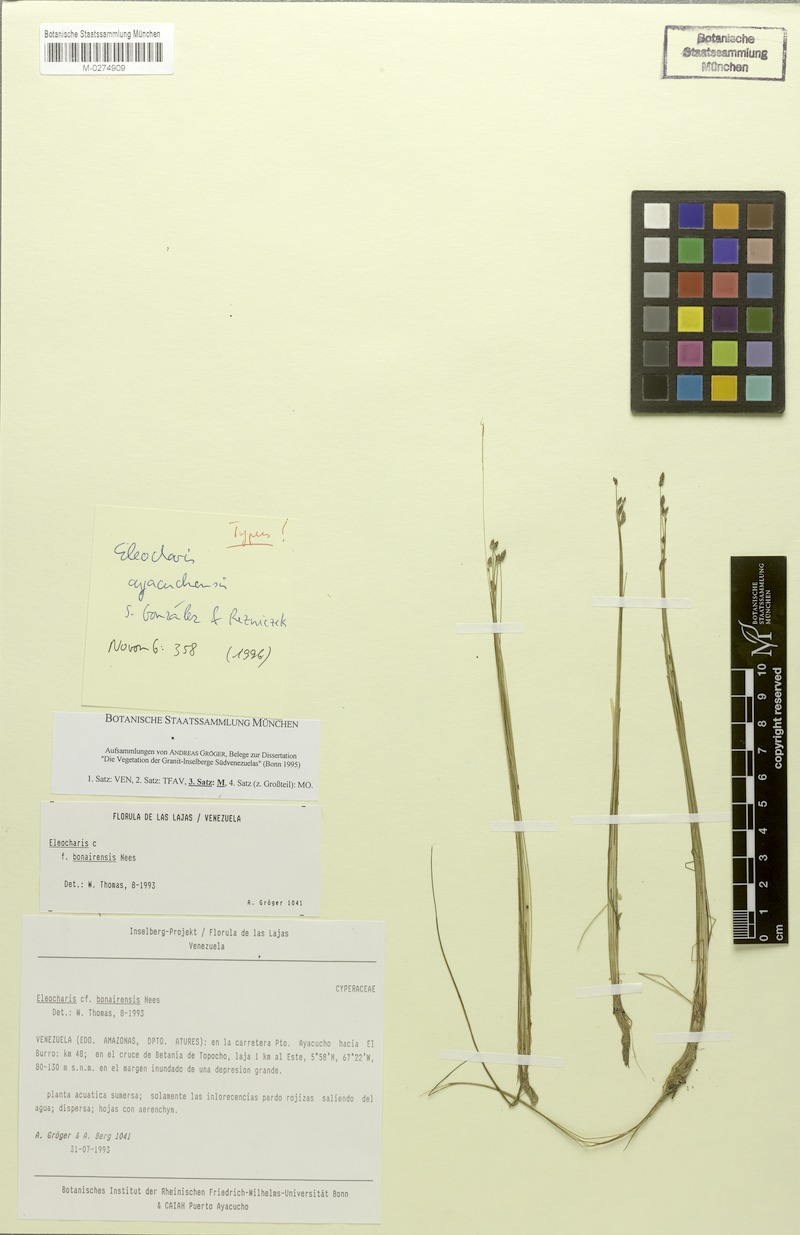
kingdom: Plantae
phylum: Tracheophyta
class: Liliopsida
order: Poales
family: Cyperaceae
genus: Eleocharis
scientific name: Eleocharis ayacuchensis
